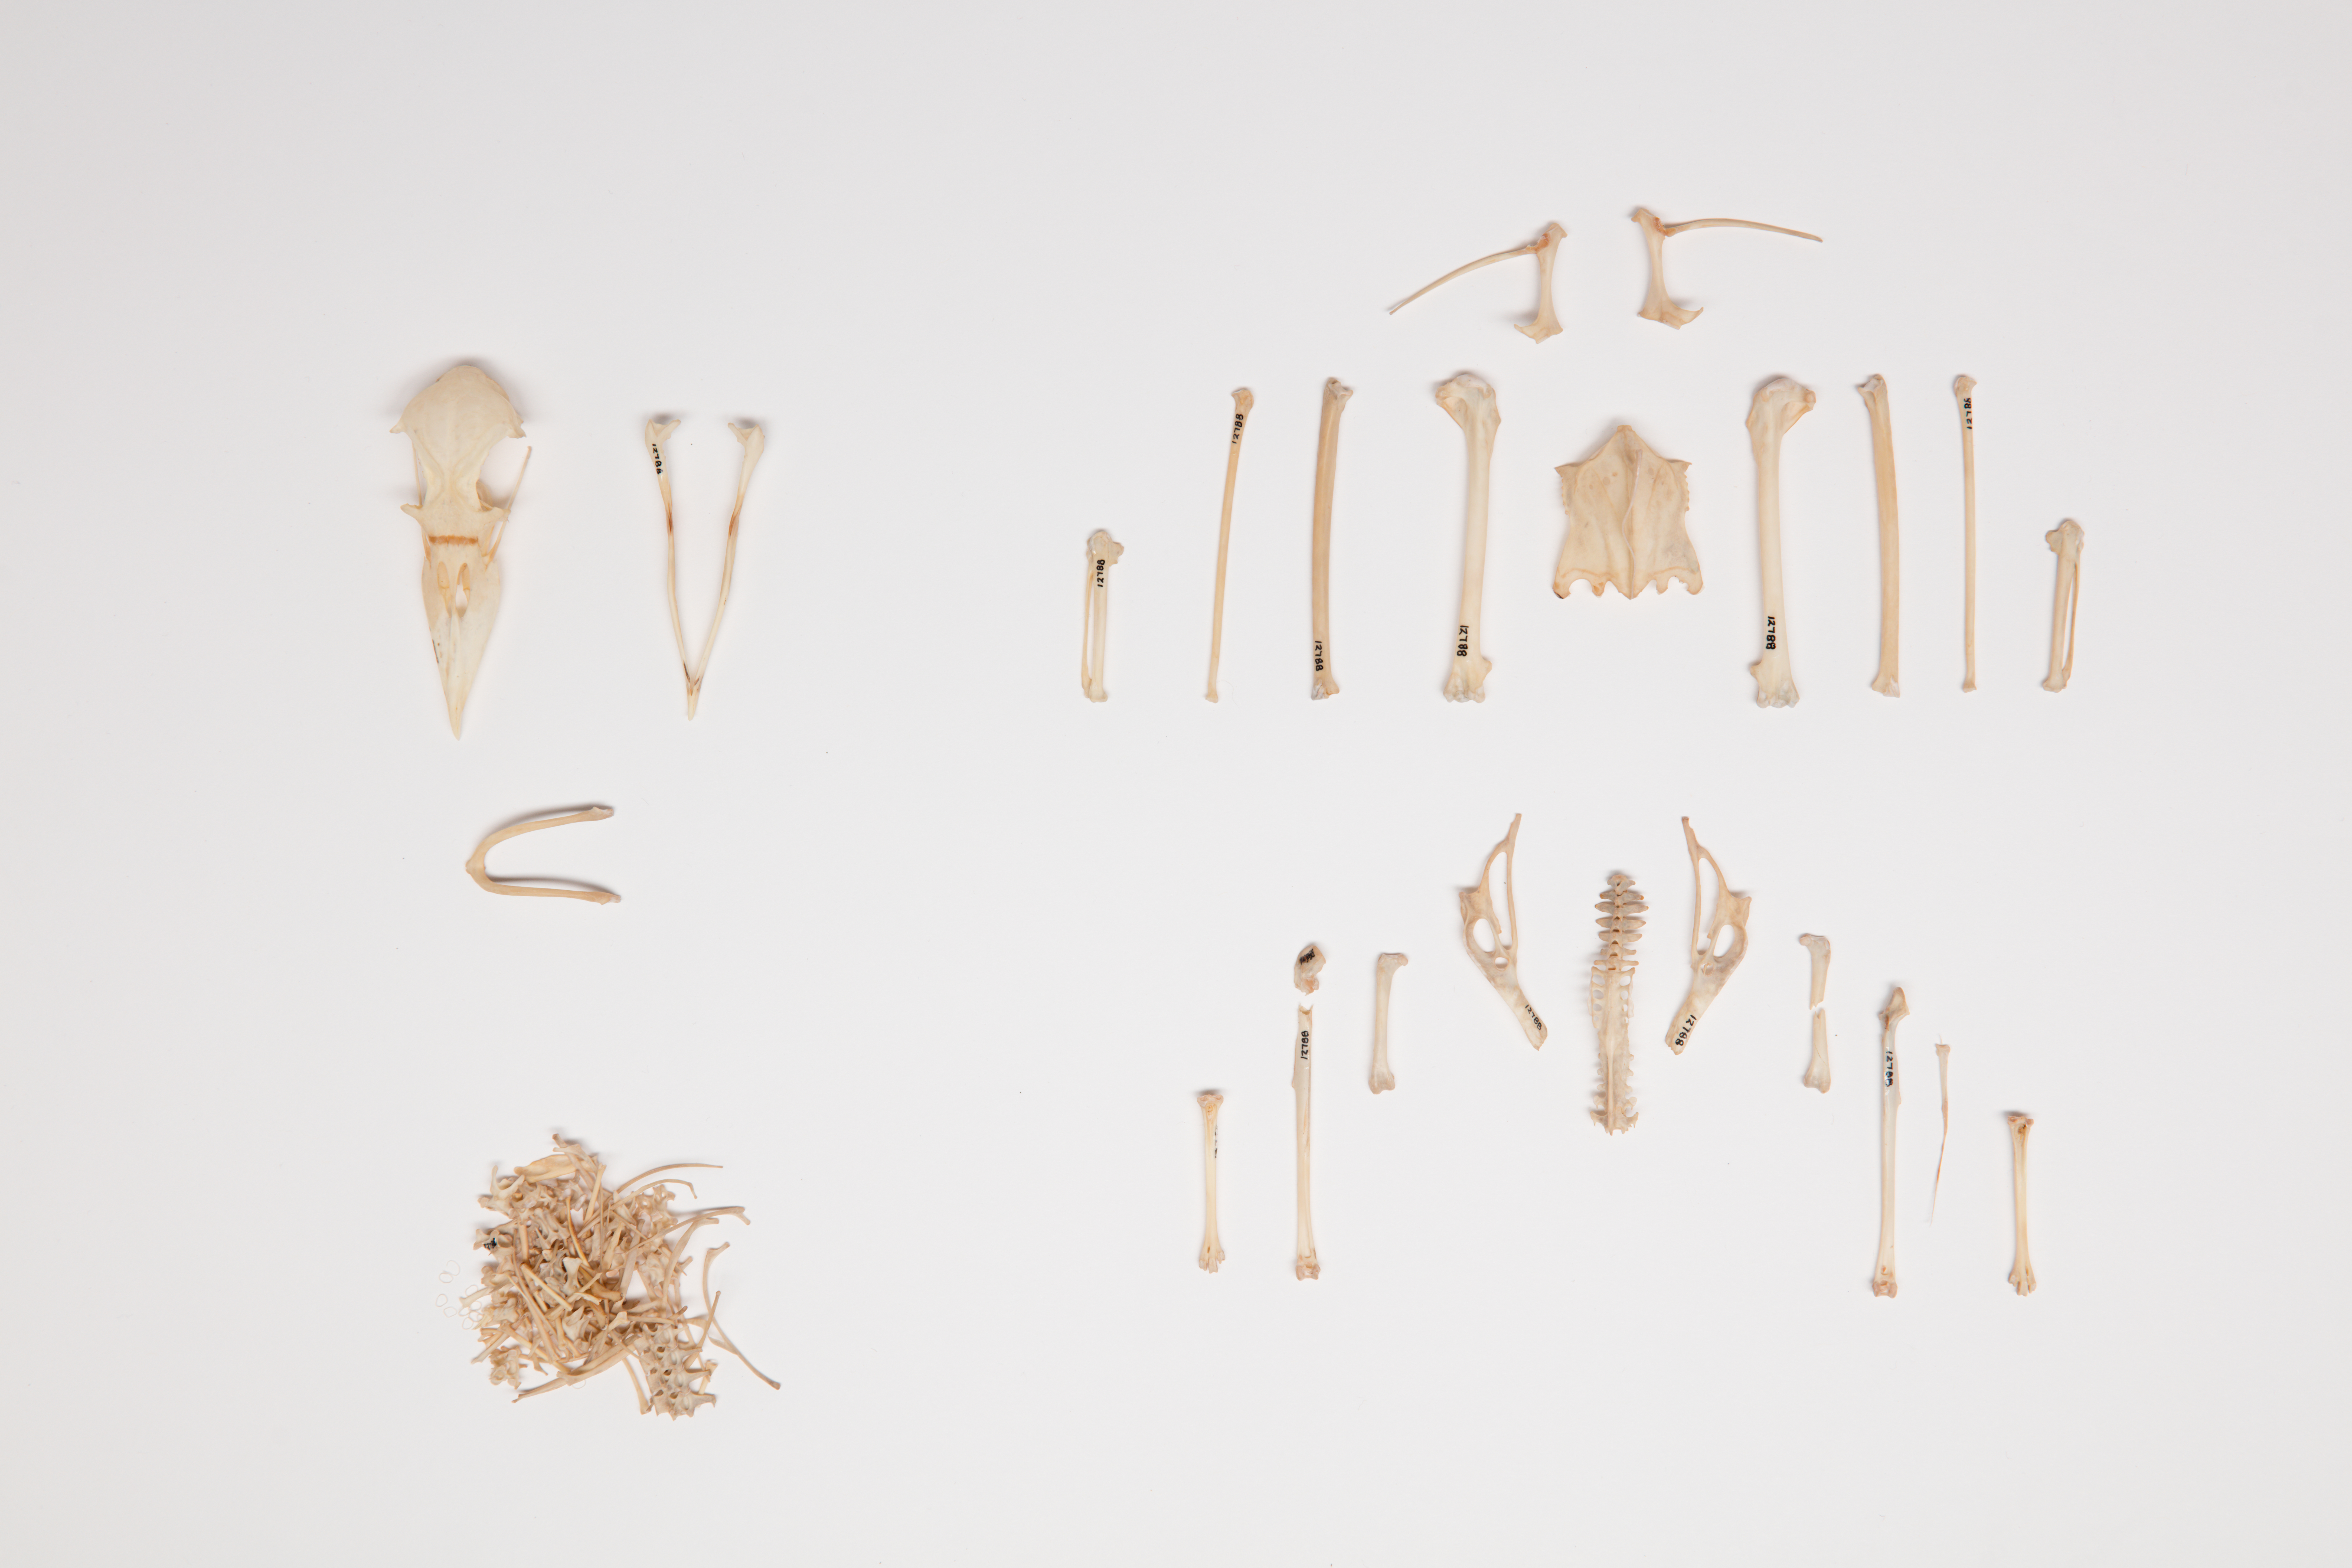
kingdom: Animalia
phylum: Chordata
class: Aves
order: Procellariiformes
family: Procellariidae
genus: Pachyptila
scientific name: Pachyptila desolata
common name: Antarctic prion
